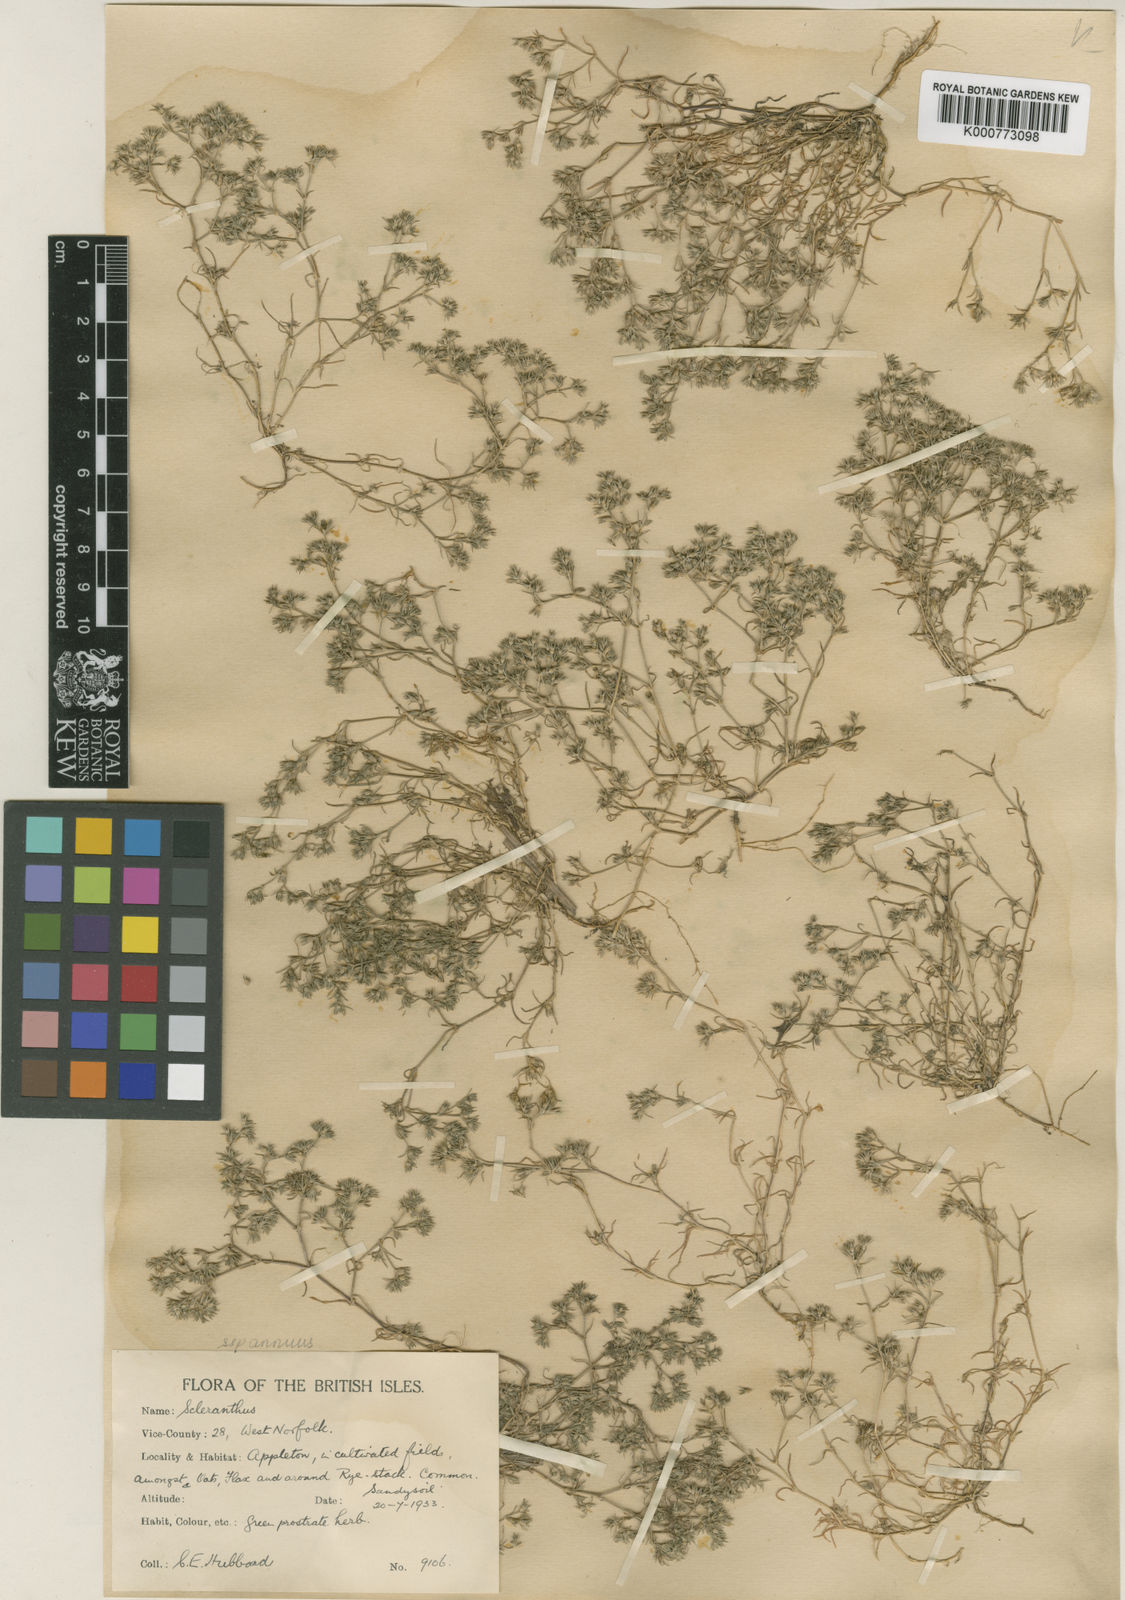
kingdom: Plantae
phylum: Tracheophyta
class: Magnoliopsida
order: Caryophyllales
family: Caryophyllaceae
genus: Scleranthus
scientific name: Scleranthus annuus
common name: Annual knawel
